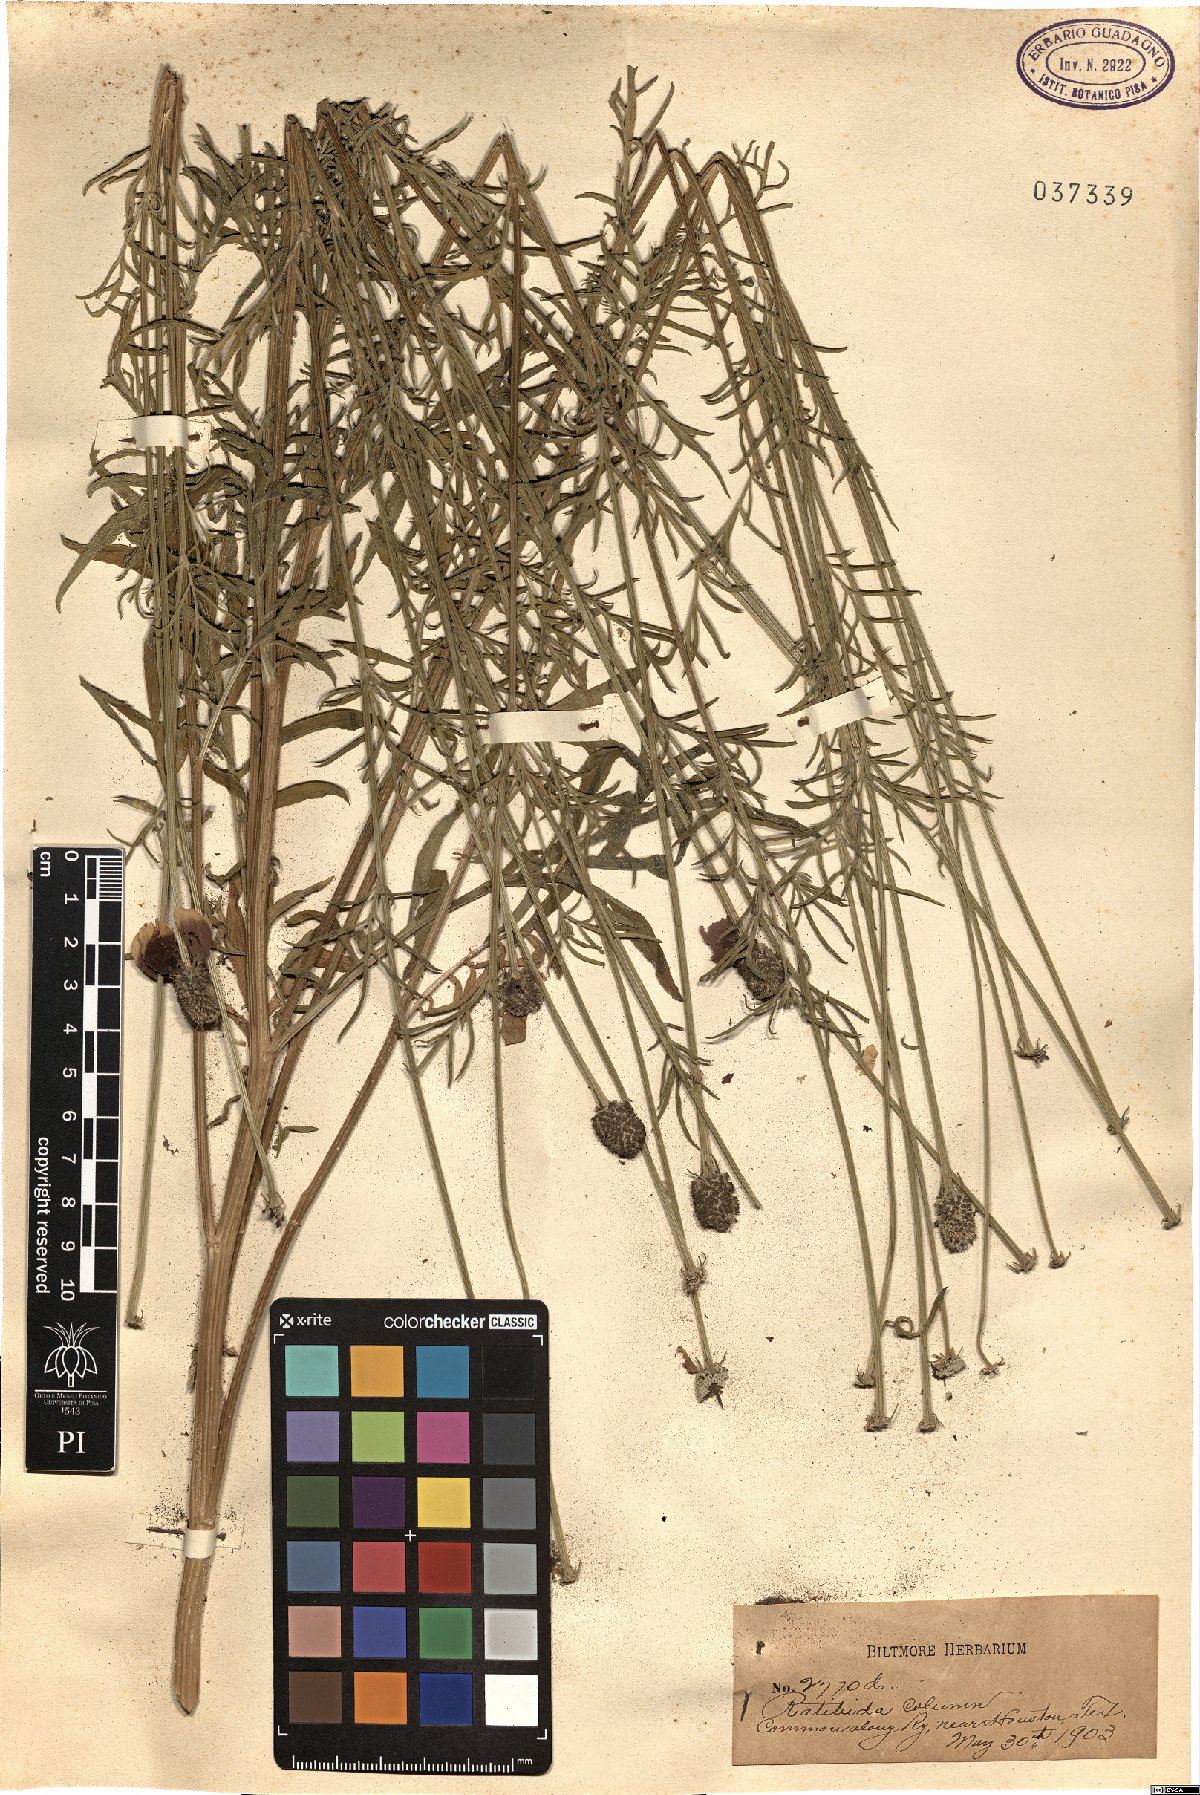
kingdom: Plantae
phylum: Tracheophyta
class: Magnoliopsida
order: Asterales
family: Asteraceae
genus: Ratibida
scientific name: Ratibida columnifera
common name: Prairie coneflower
